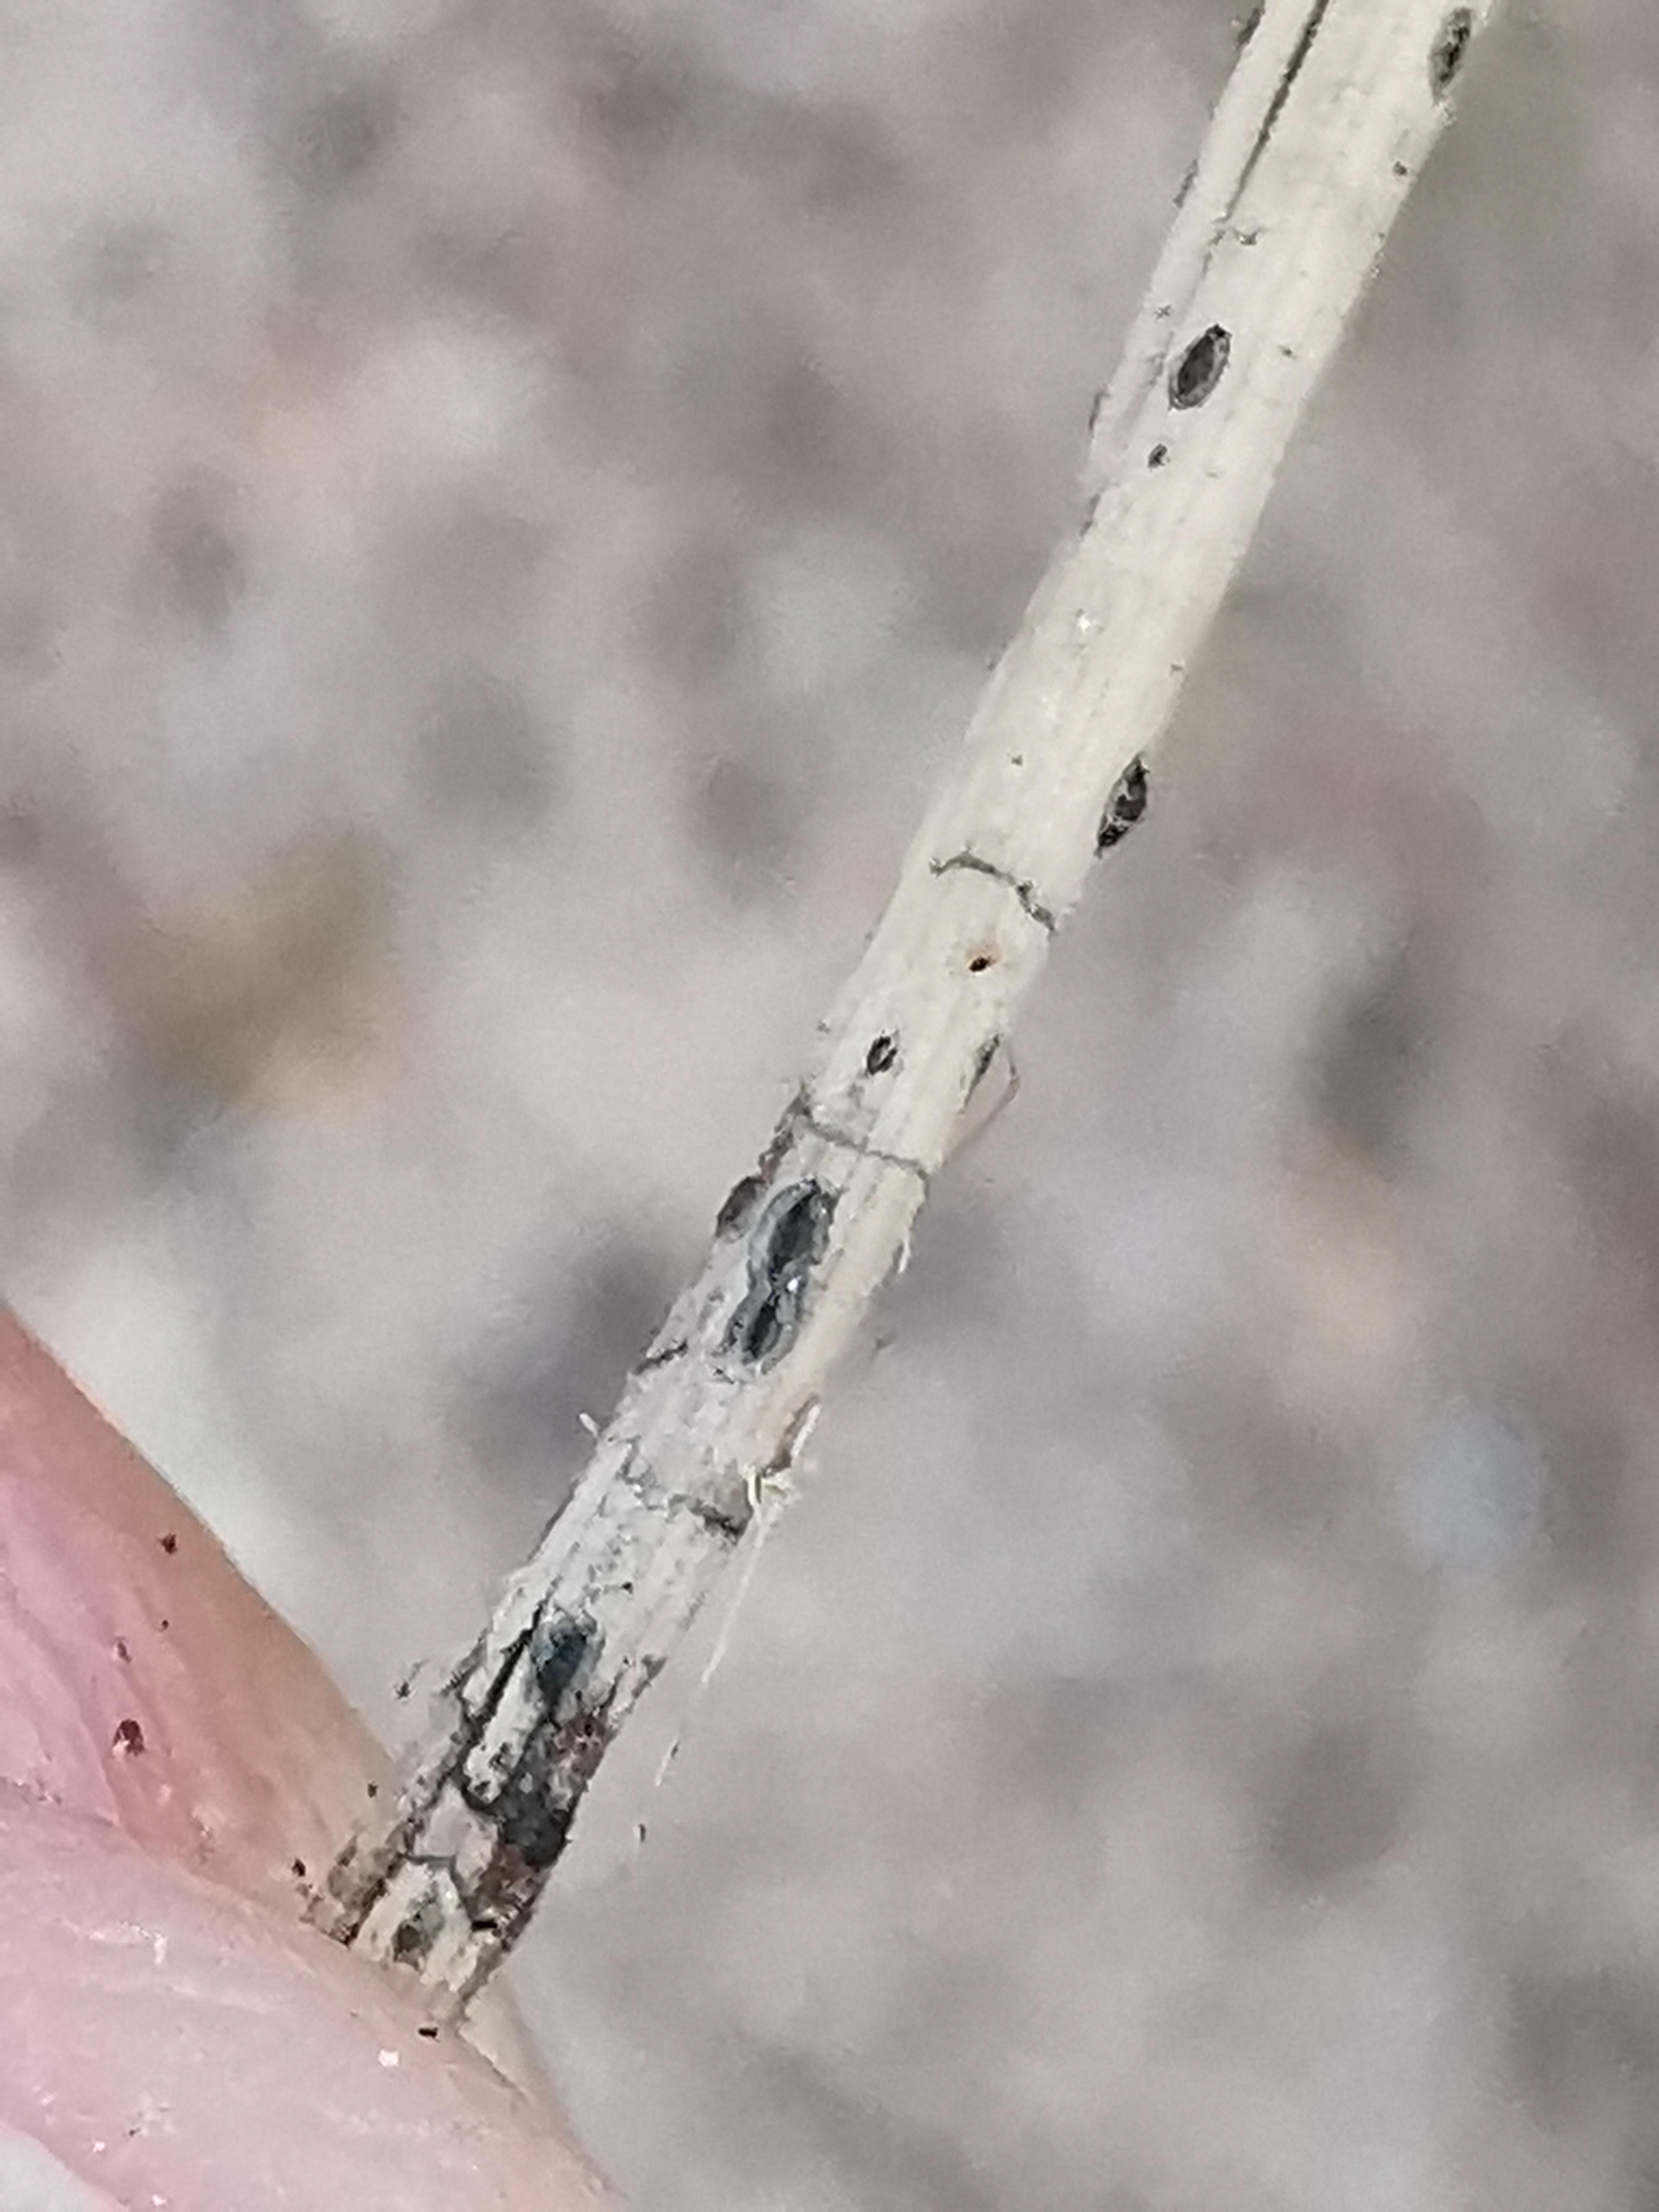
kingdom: Fungi
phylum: Ascomycota
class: Leotiomycetes
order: Rhytismatales
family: Rhytismataceae
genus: Lophodermium
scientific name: Lophodermium pinastri
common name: fyrre-fureplet
